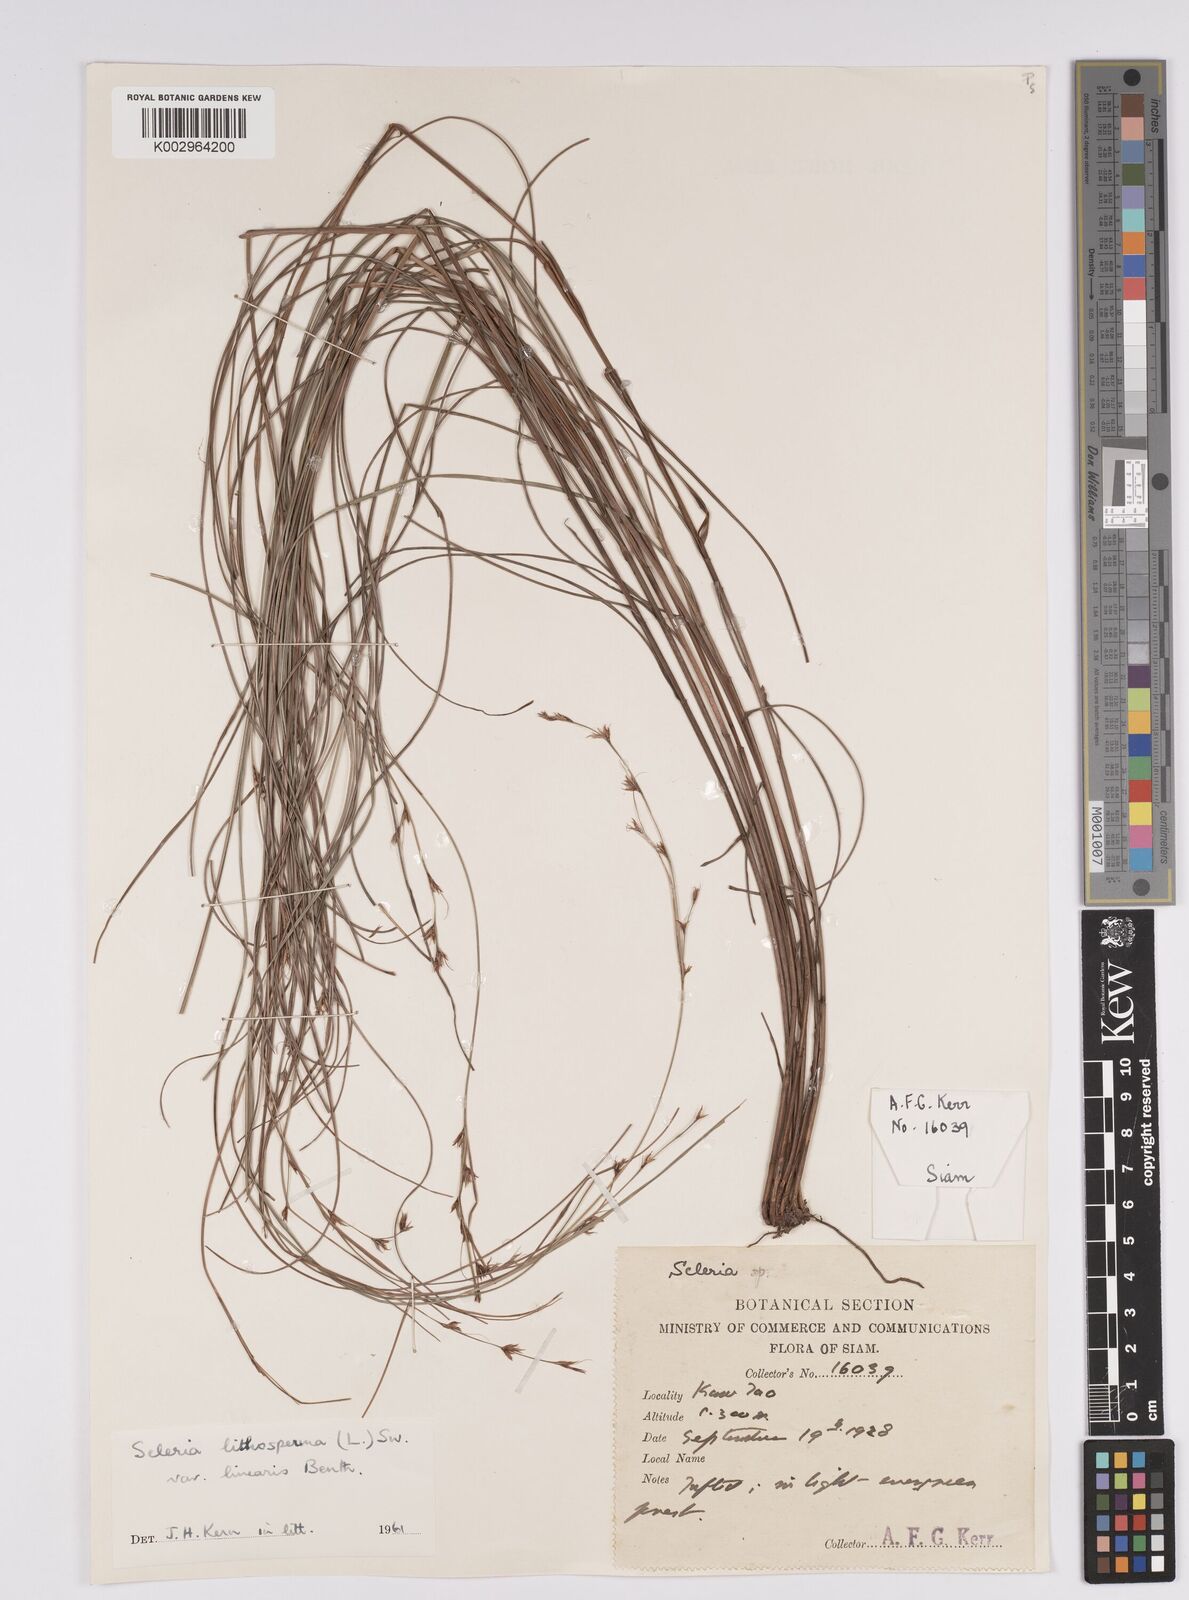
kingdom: Plantae
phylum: Tracheophyta
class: Liliopsida
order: Poales
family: Cyperaceae
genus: Scleria
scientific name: Scleria lithosperma
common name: Florida keys nut-rush
